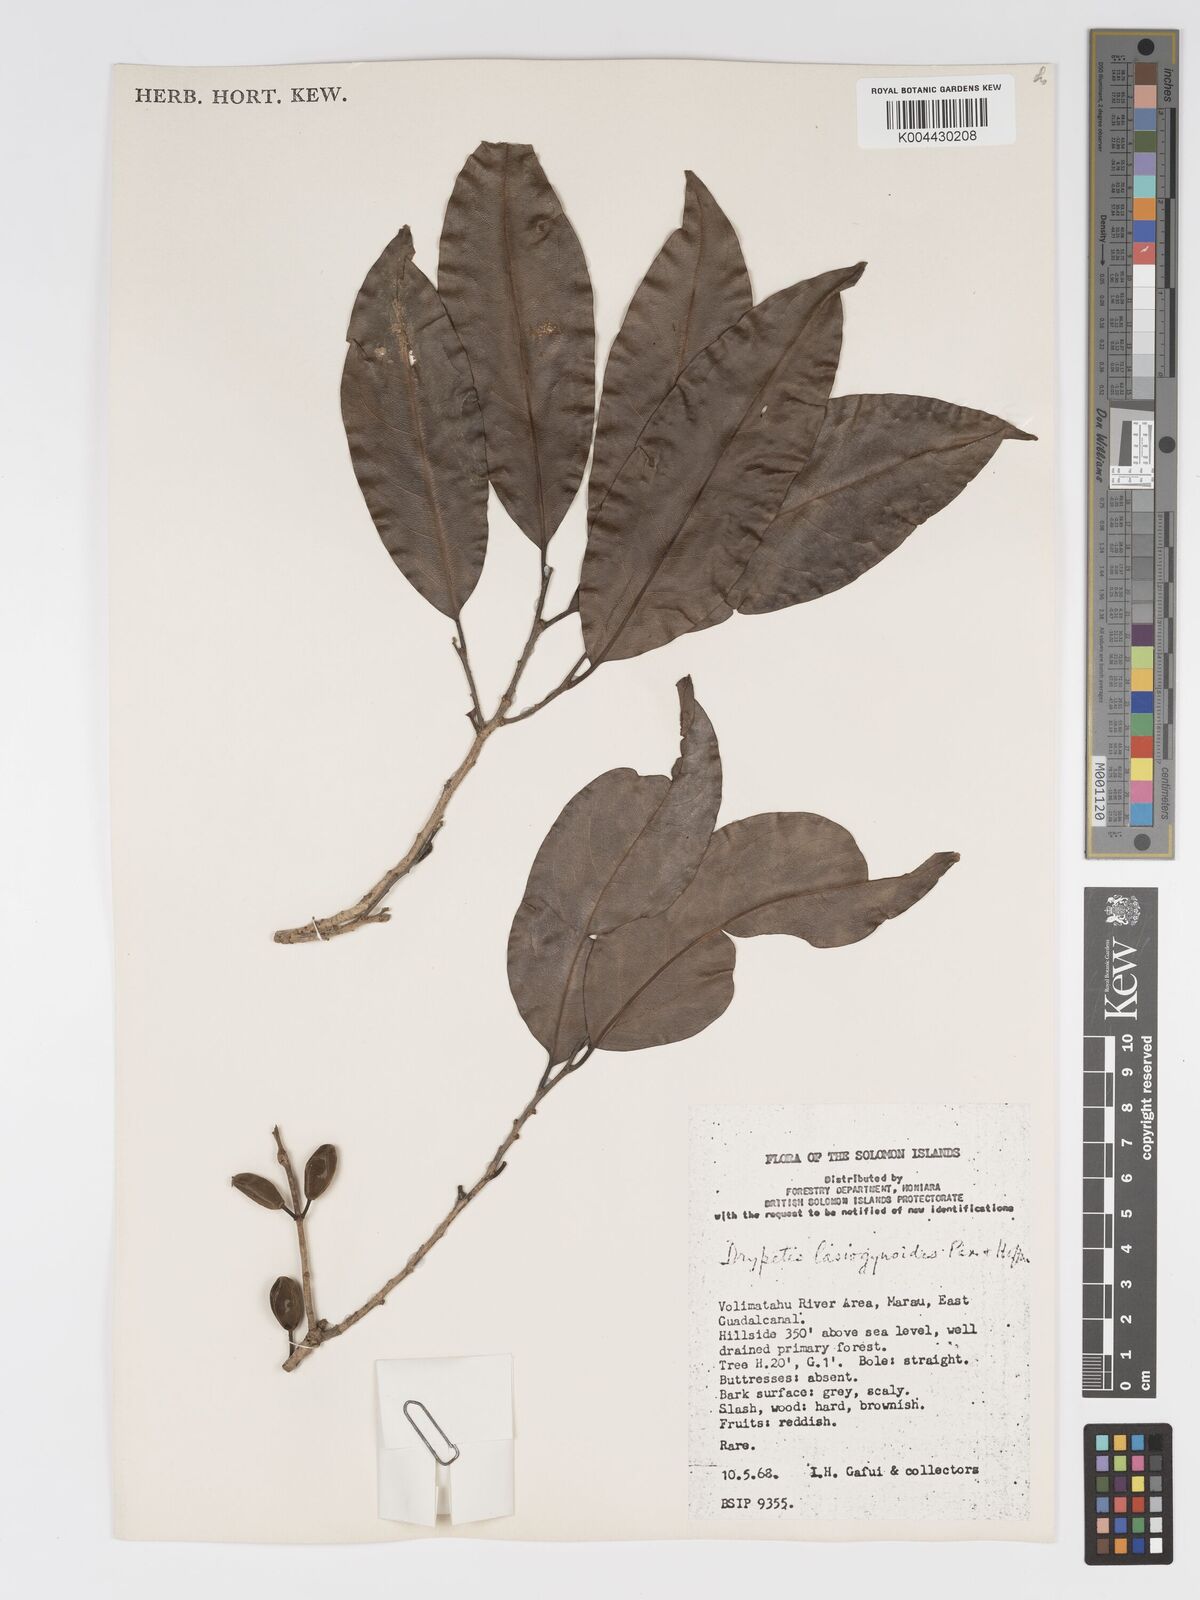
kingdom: Plantae
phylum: Tracheophyta
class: Magnoliopsida
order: Malpighiales
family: Putranjivaceae
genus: Drypetes
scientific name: Drypetes lasiogynoides
